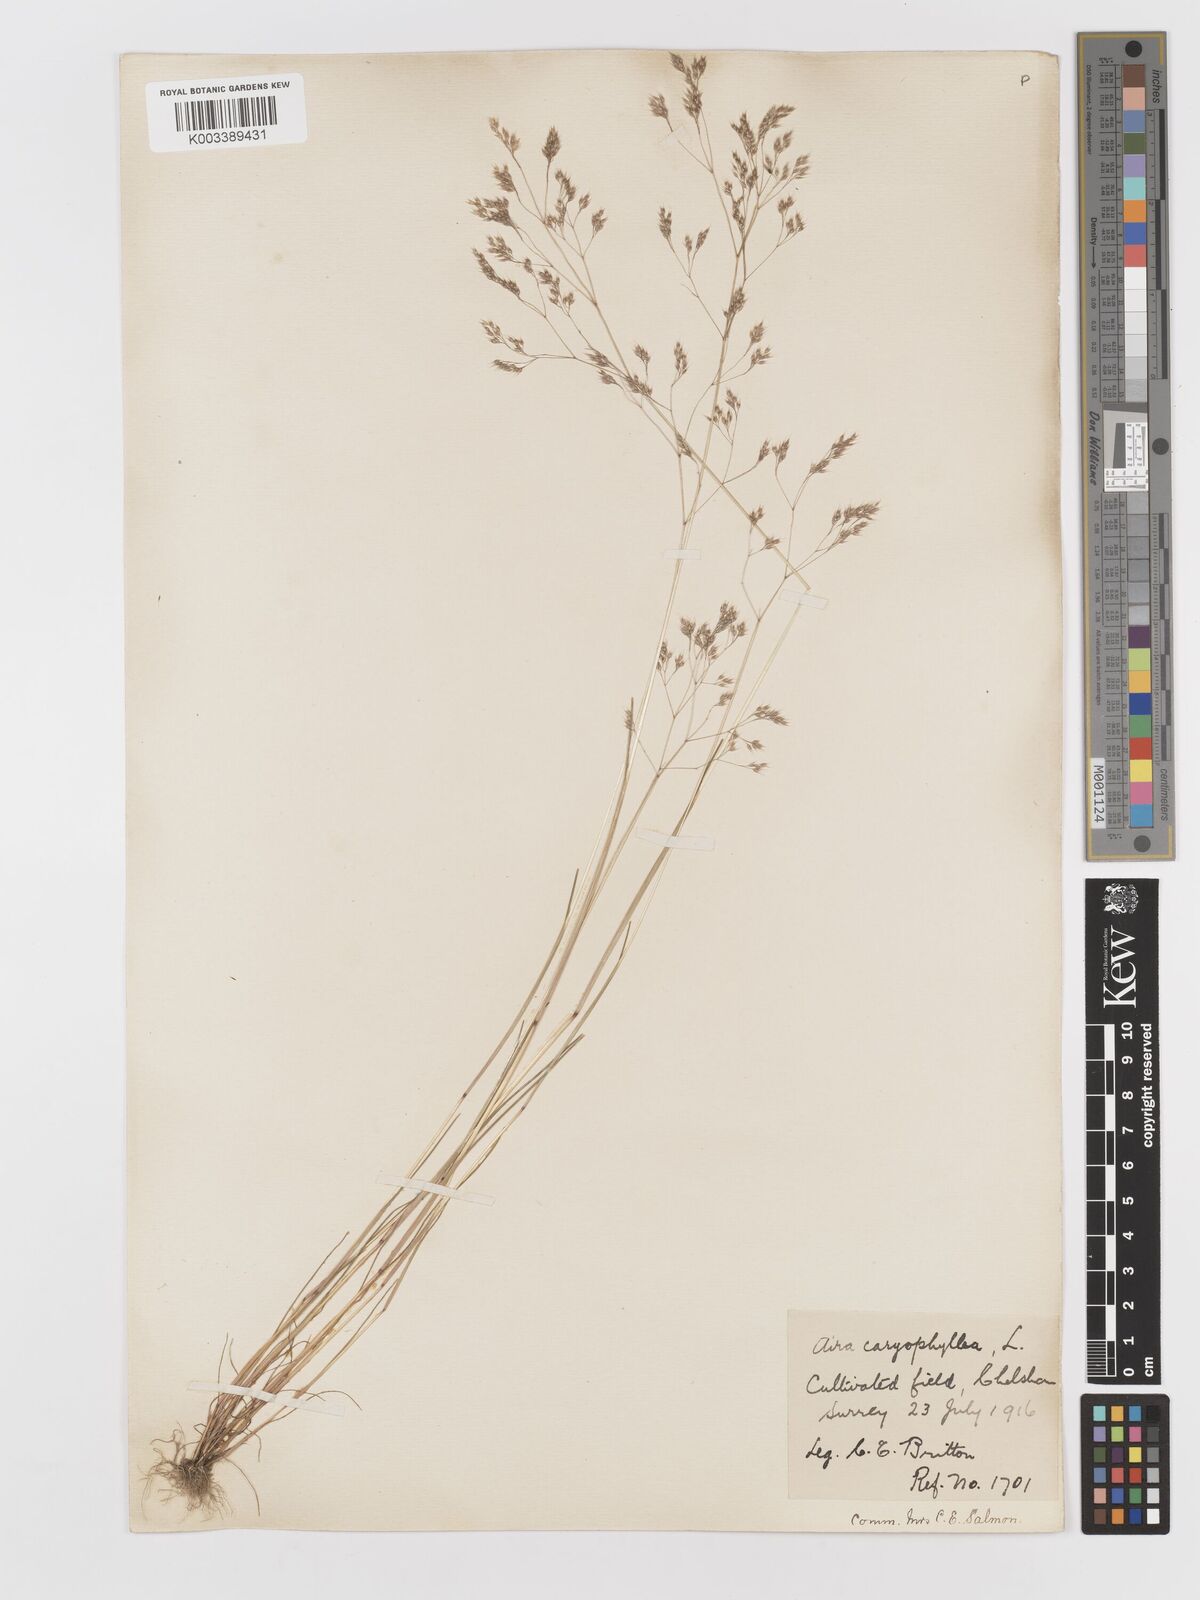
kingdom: Plantae
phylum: Tracheophyta
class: Liliopsida
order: Poales
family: Poaceae
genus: Aira
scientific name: Aira caryophyllea
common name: Silver hairgrass
